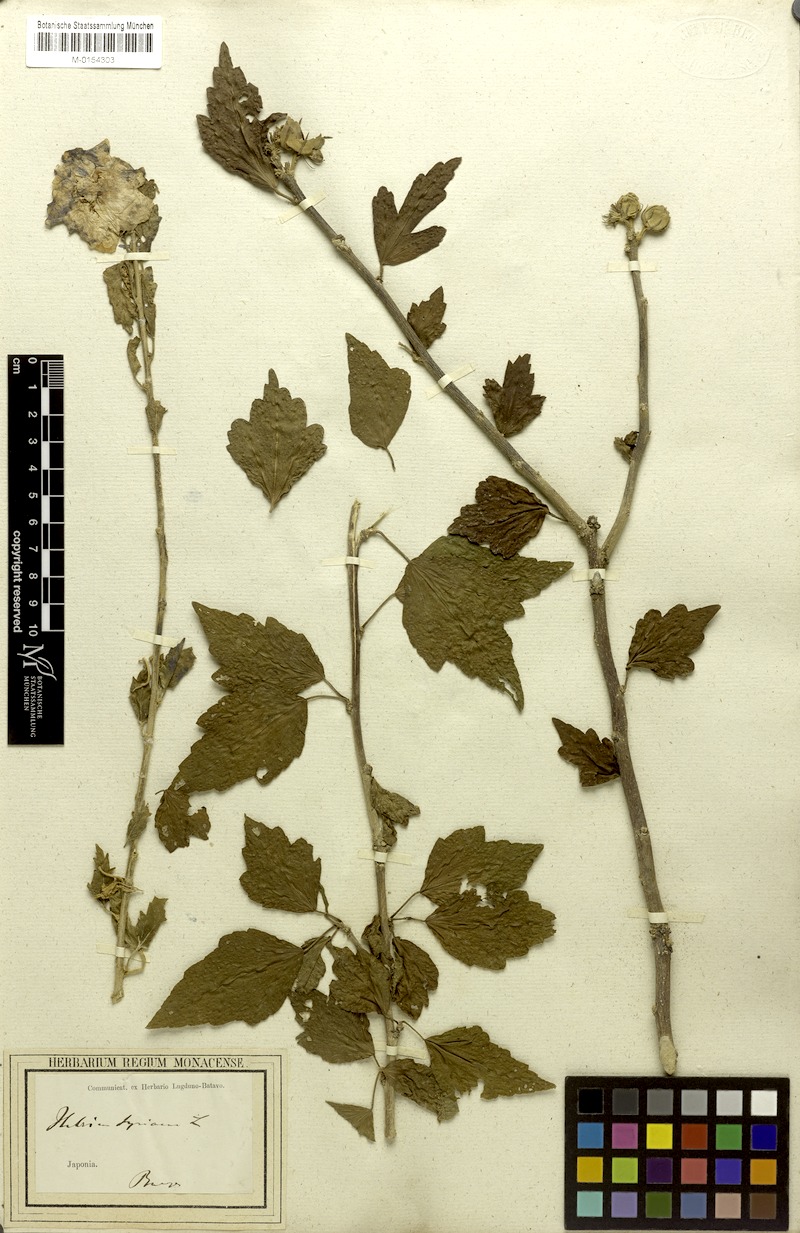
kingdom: Plantae
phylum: Tracheophyta
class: Magnoliopsida
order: Malvales
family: Malvaceae
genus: Hibiscus
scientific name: Hibiscus syriacus
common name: Syrian ketmia
